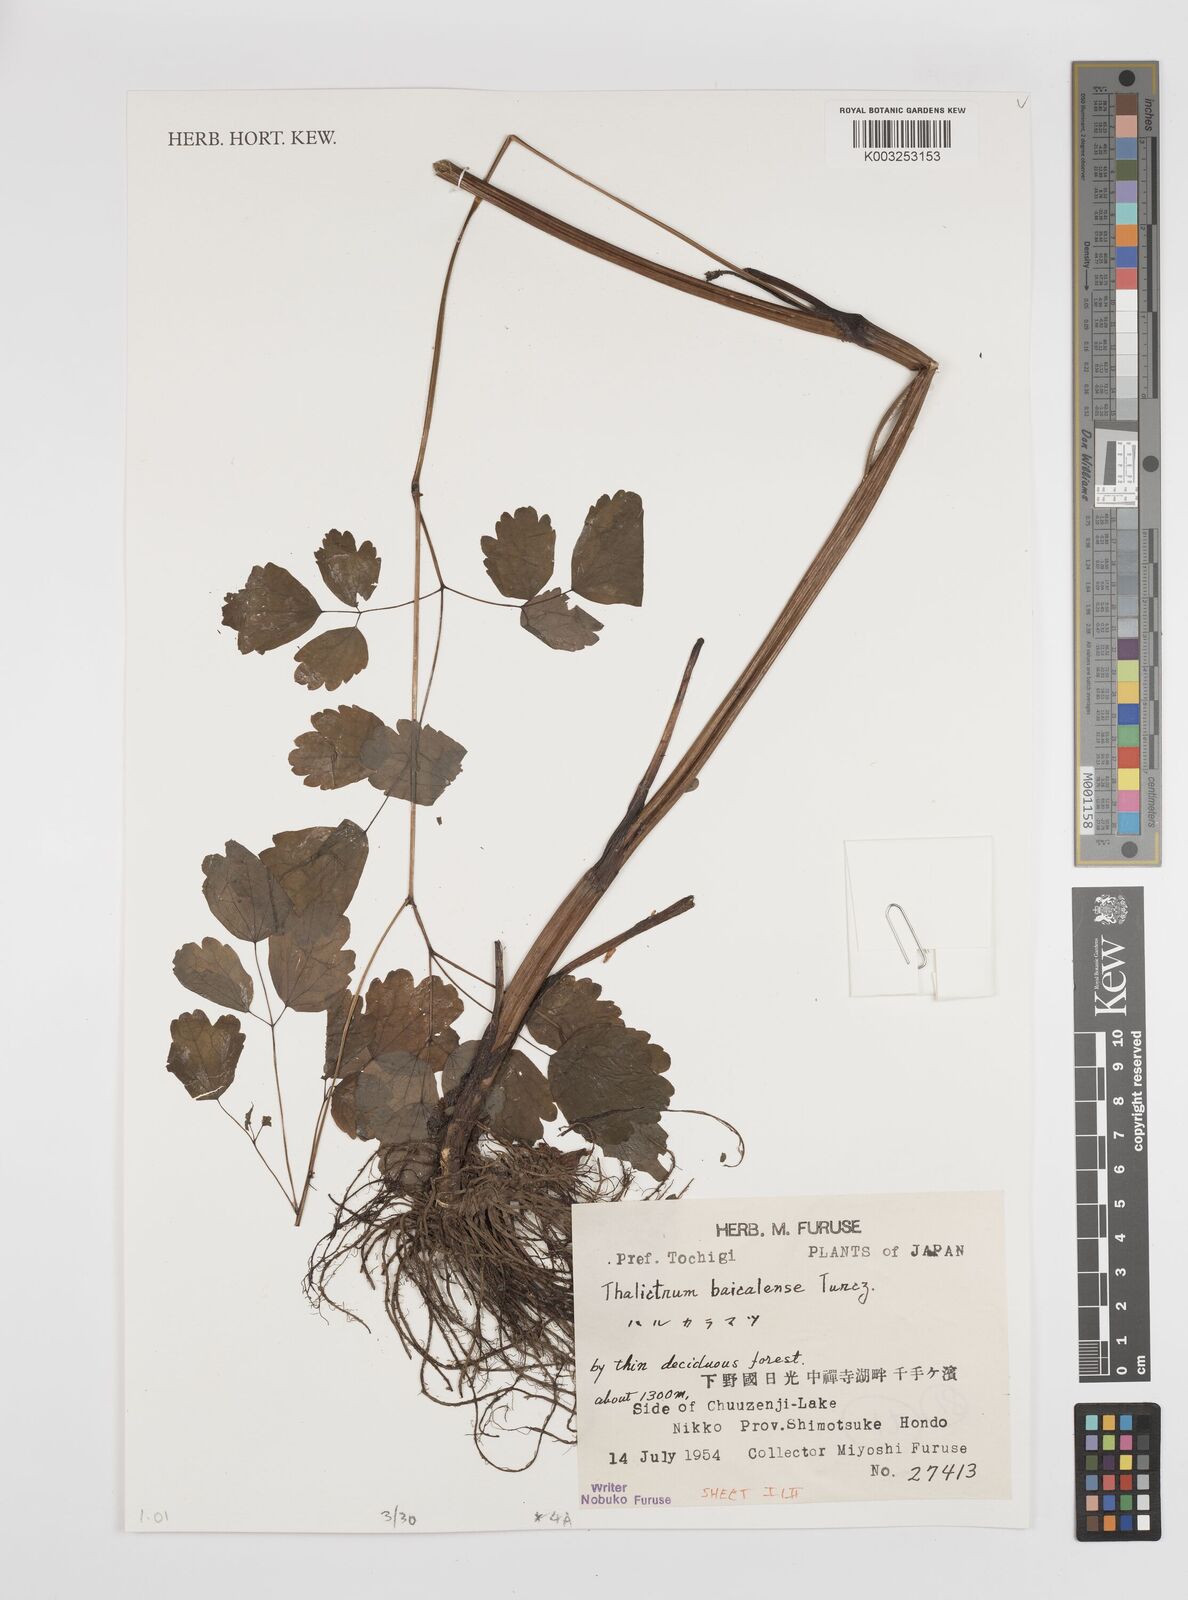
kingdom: Plantae
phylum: Tracheophyta
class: Magnoliopsida
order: Ranunculales
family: Ranunculaceae
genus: Thalictrum
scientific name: Thalictrum baicalense
